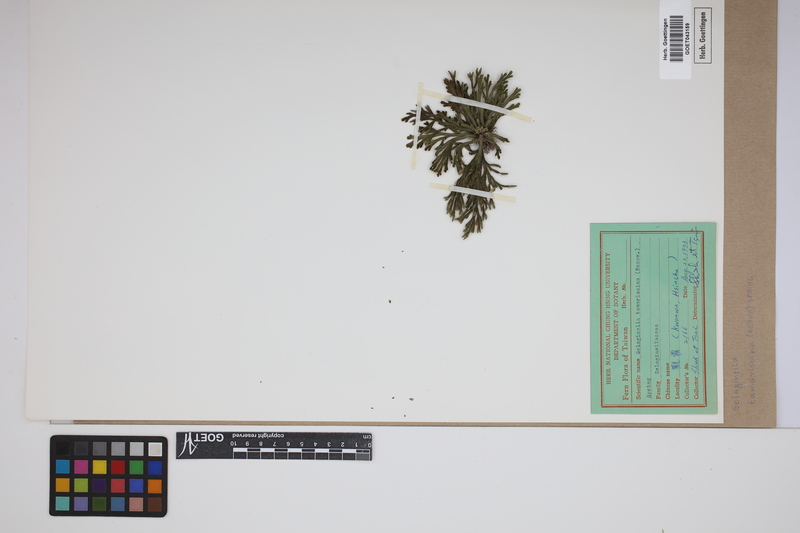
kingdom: Plantae
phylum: Tracheophyta
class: Lycopodiopsida
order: Selaginellales
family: Selaginellaceae
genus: Selaginella
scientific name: Selaginella tamariscina
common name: Little-club-moss
